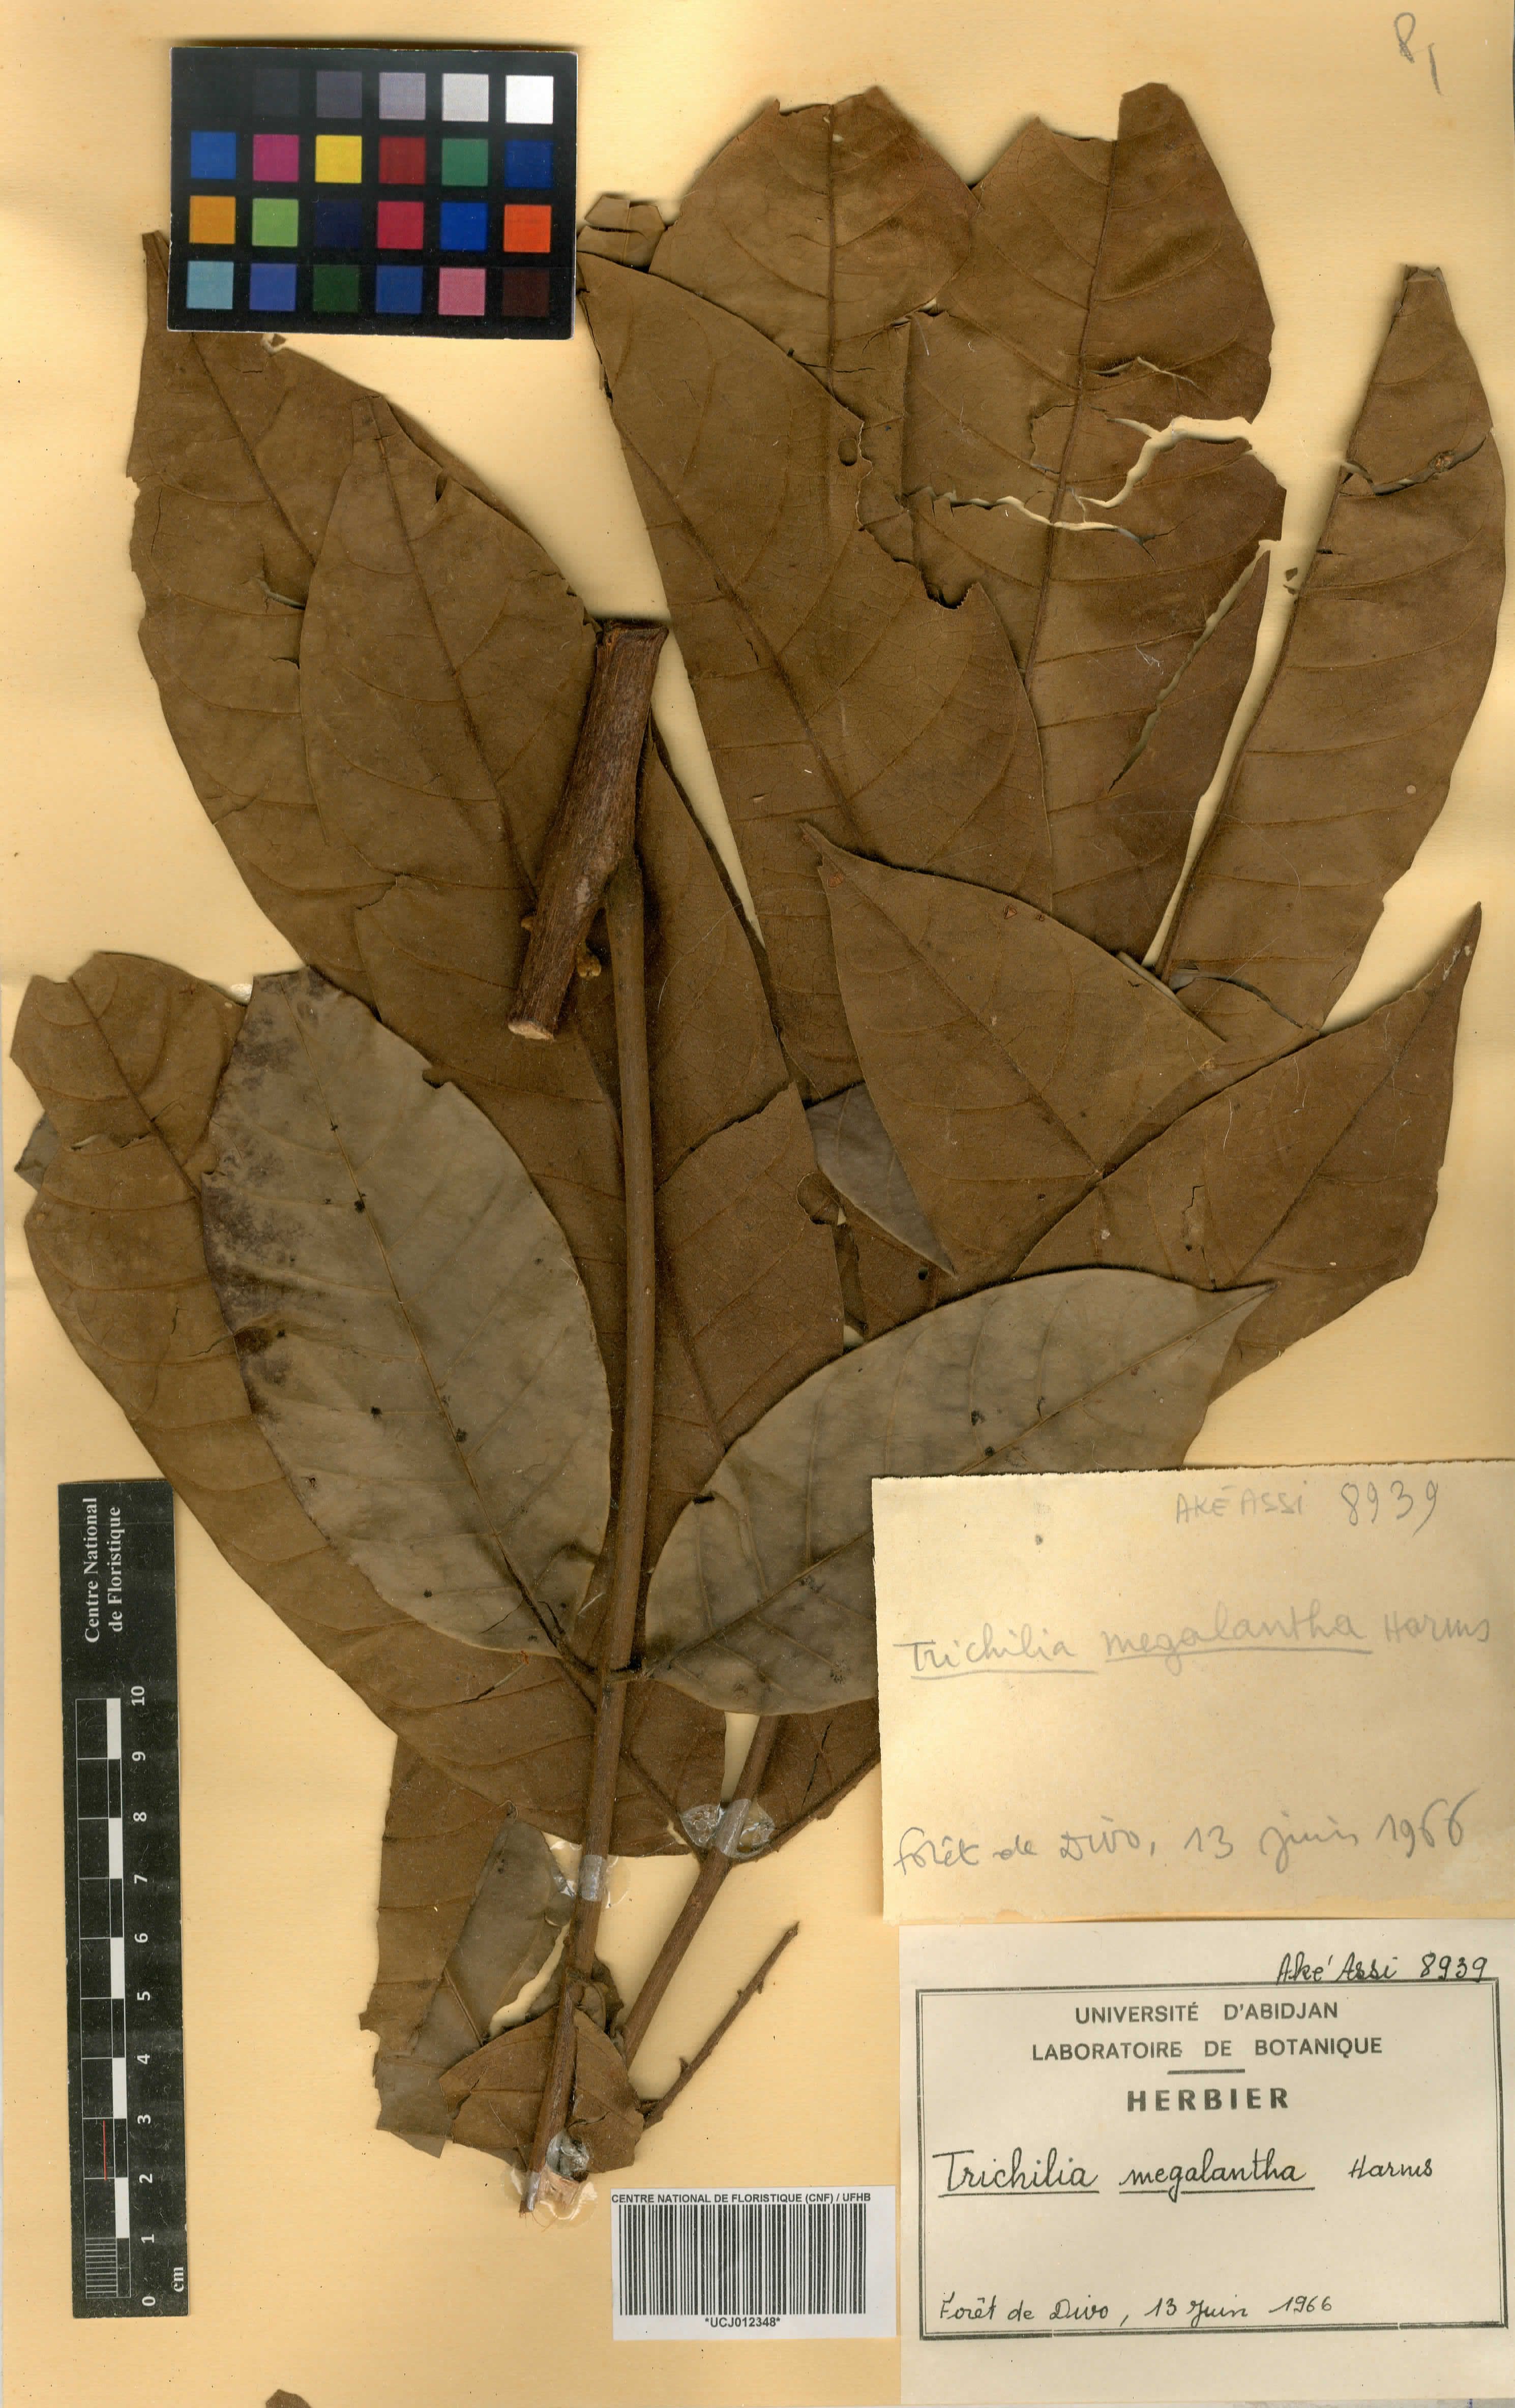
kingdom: Plantae
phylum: Tracheophyta
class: Magnoliopsida
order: Sapindales
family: Meliaceae
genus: Trichilia
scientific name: Trichilia megalantha
